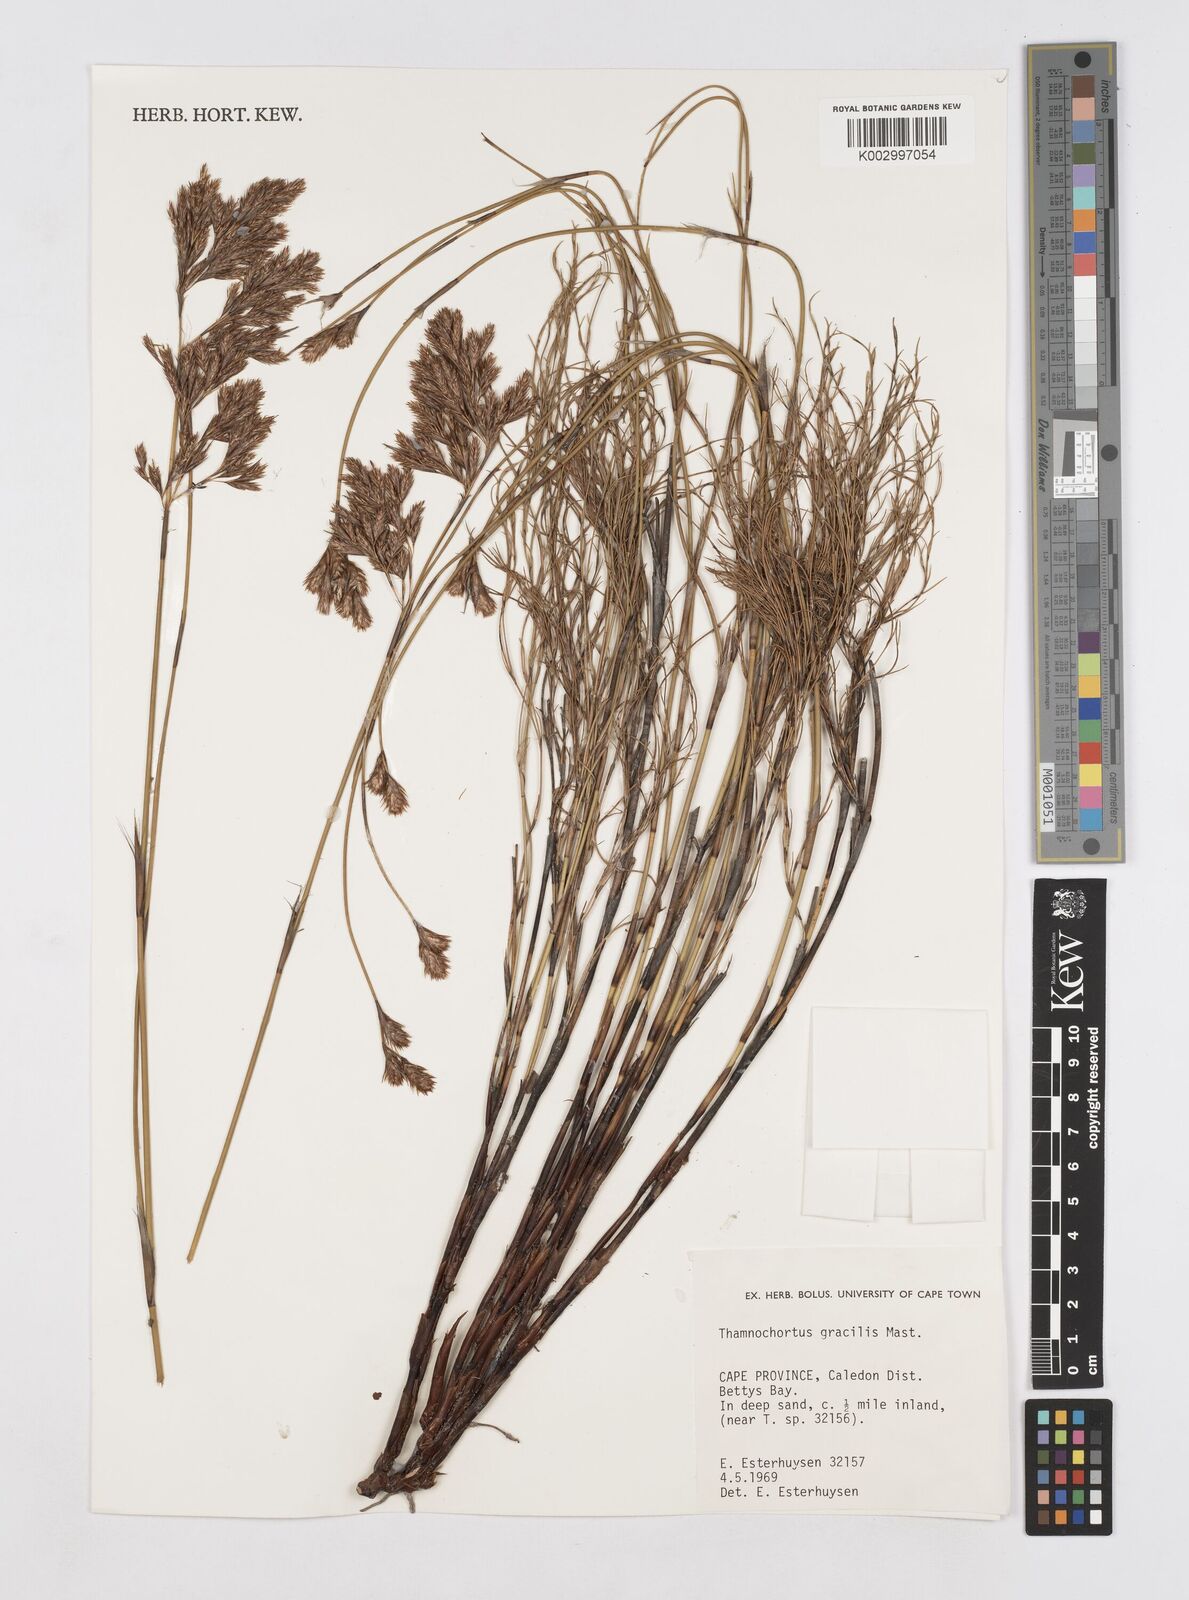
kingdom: Plantae
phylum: Tracheophyta
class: Liliopsida
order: Poales
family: Restionaceae
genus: Thamnochortus
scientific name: Thamnochortus gracilis
